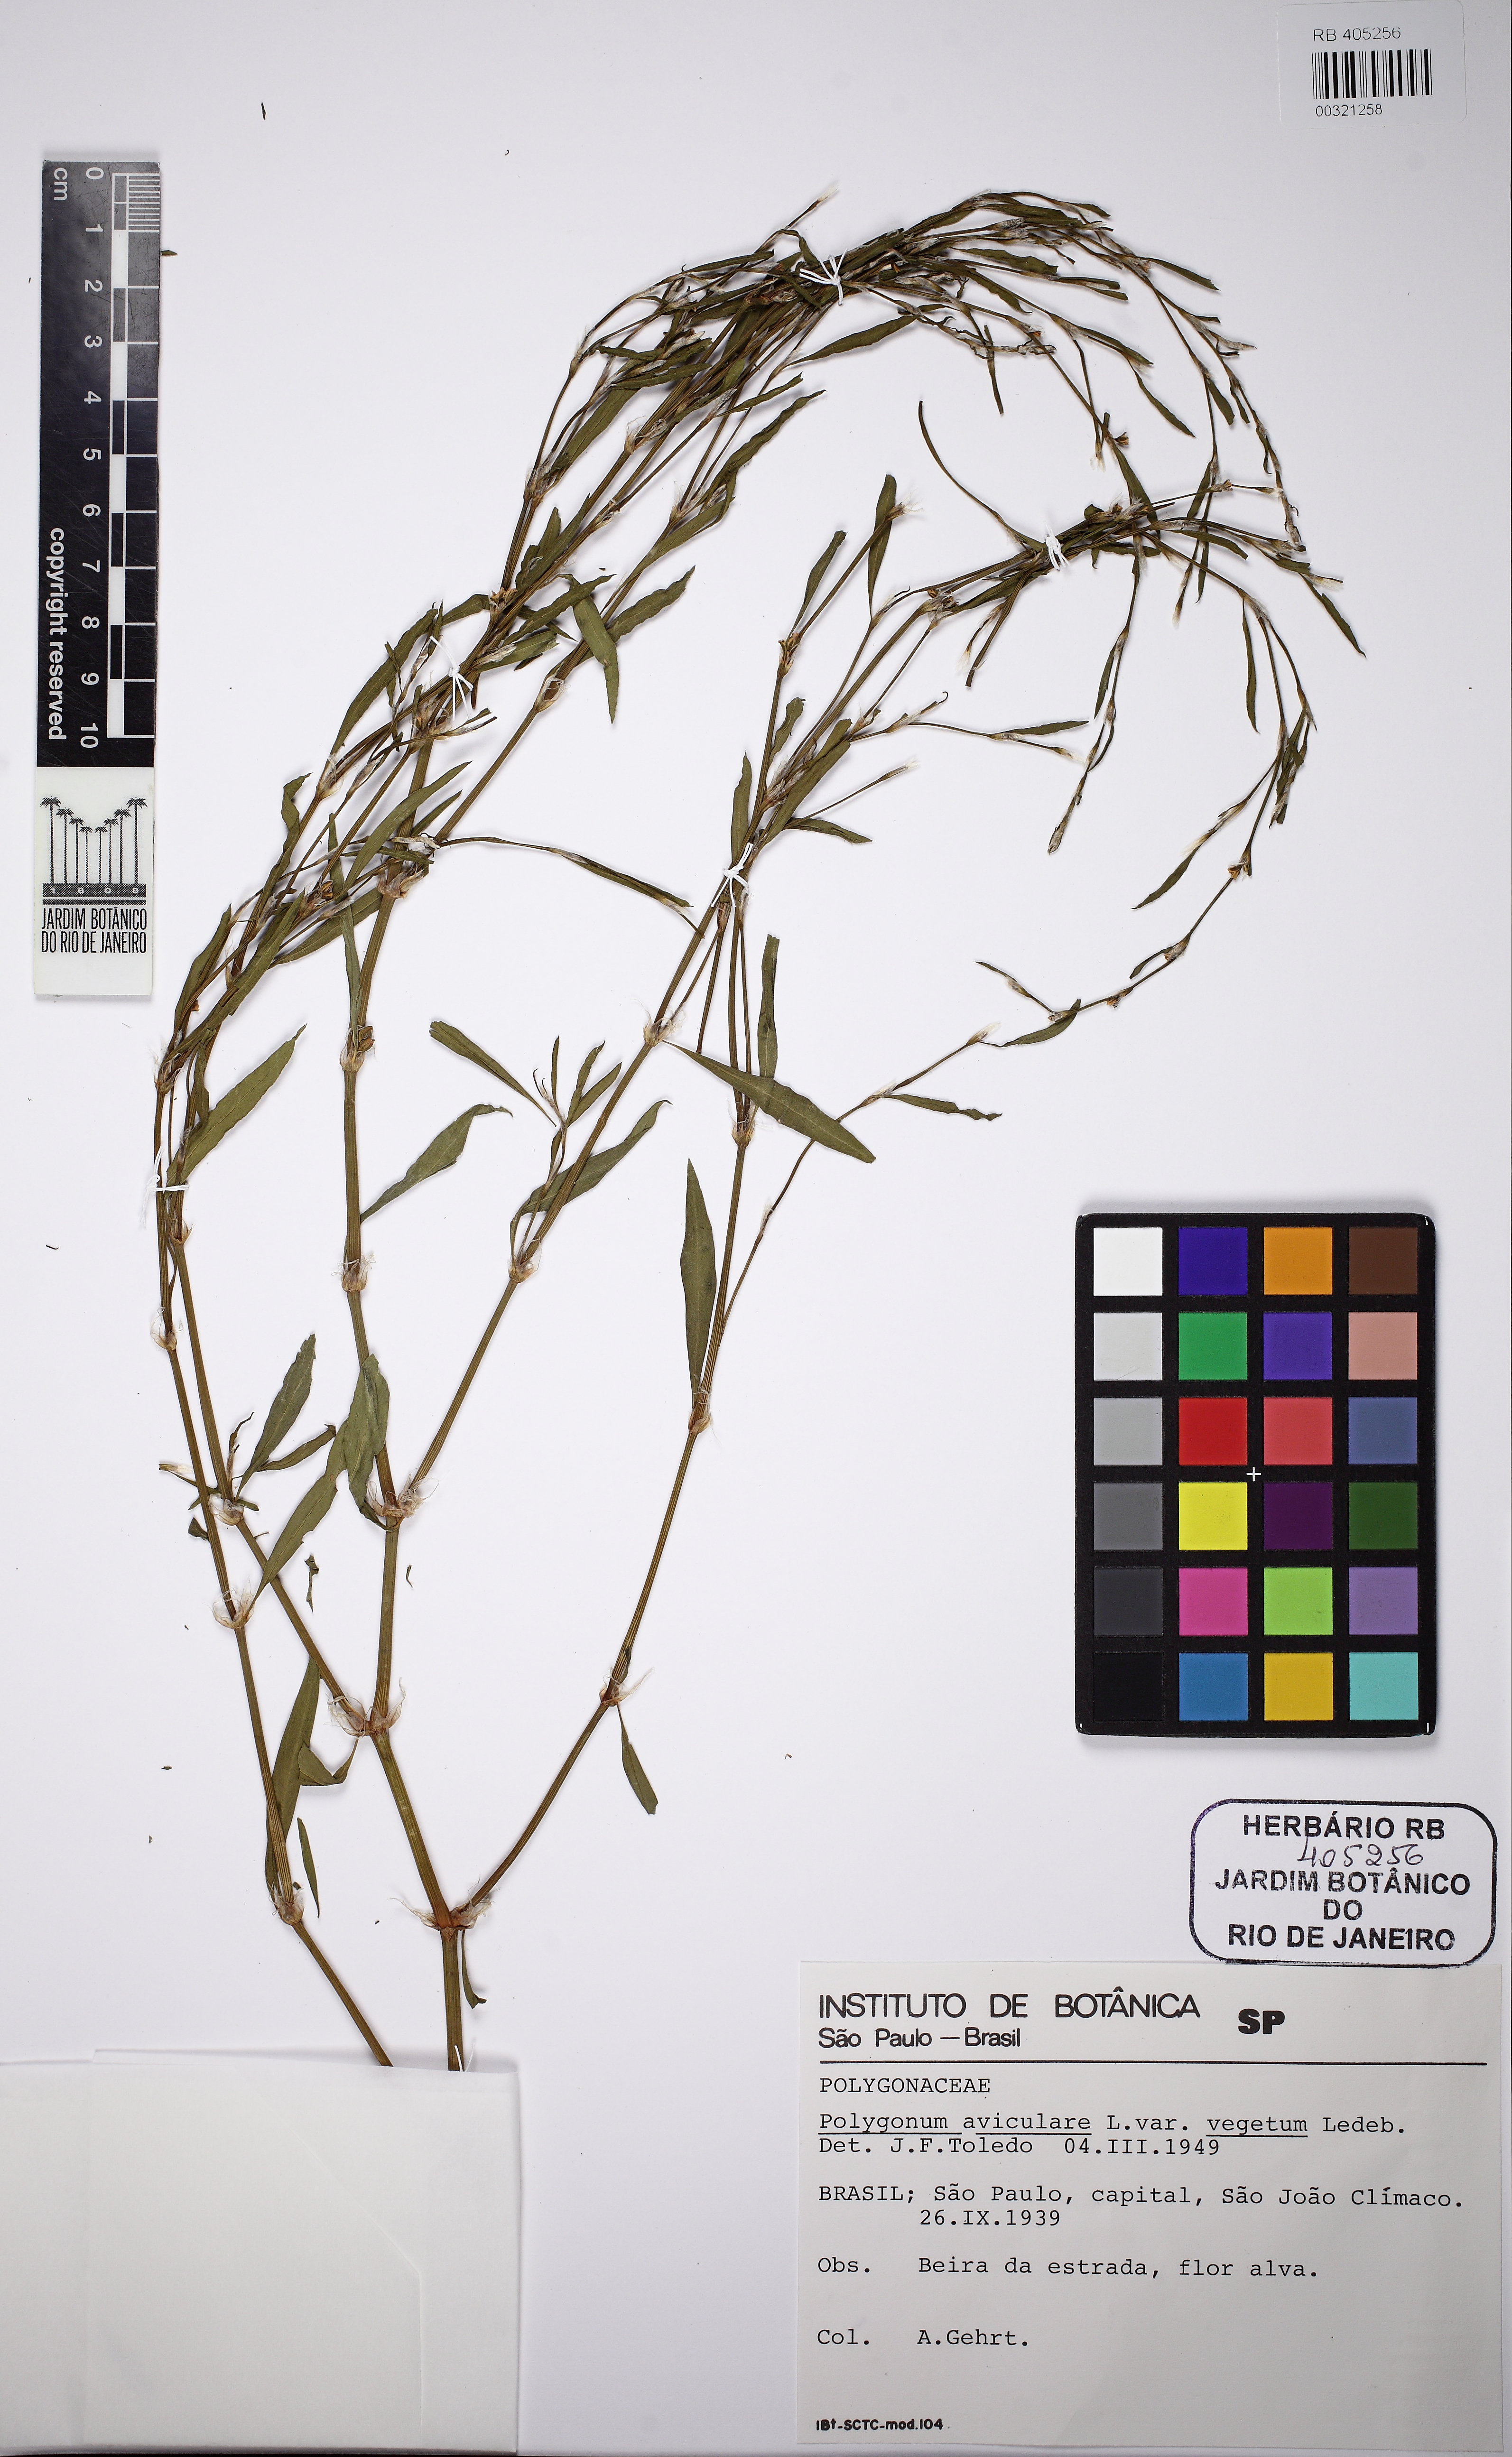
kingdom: Plantae
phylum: Tracheophyta
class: Magnoliopsida
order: Caryophyllales
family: Polygonaceae
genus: Polygonum
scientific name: Polygonum aviculare
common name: Prostrate knotweed
